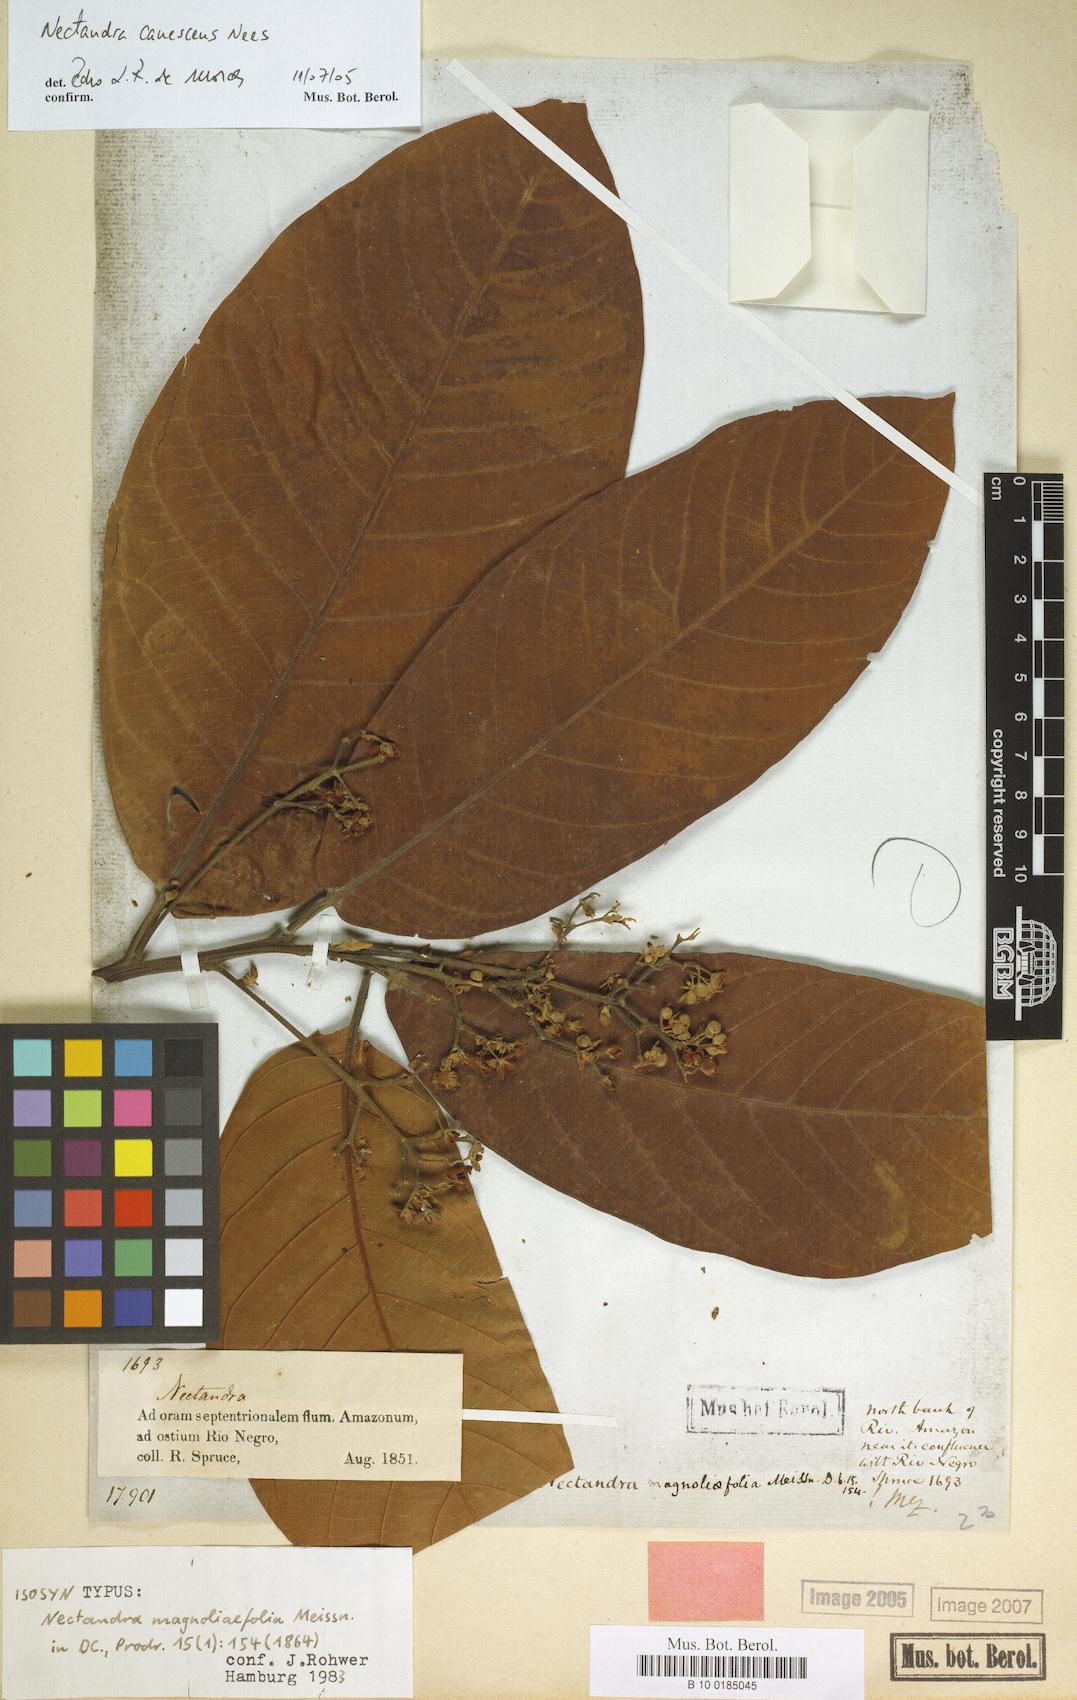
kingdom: Plantae
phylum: Tracheophyta
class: Magnoliopsida
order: Laurales
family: Lauraceae
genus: Nectandra
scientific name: Nectandra canescens
